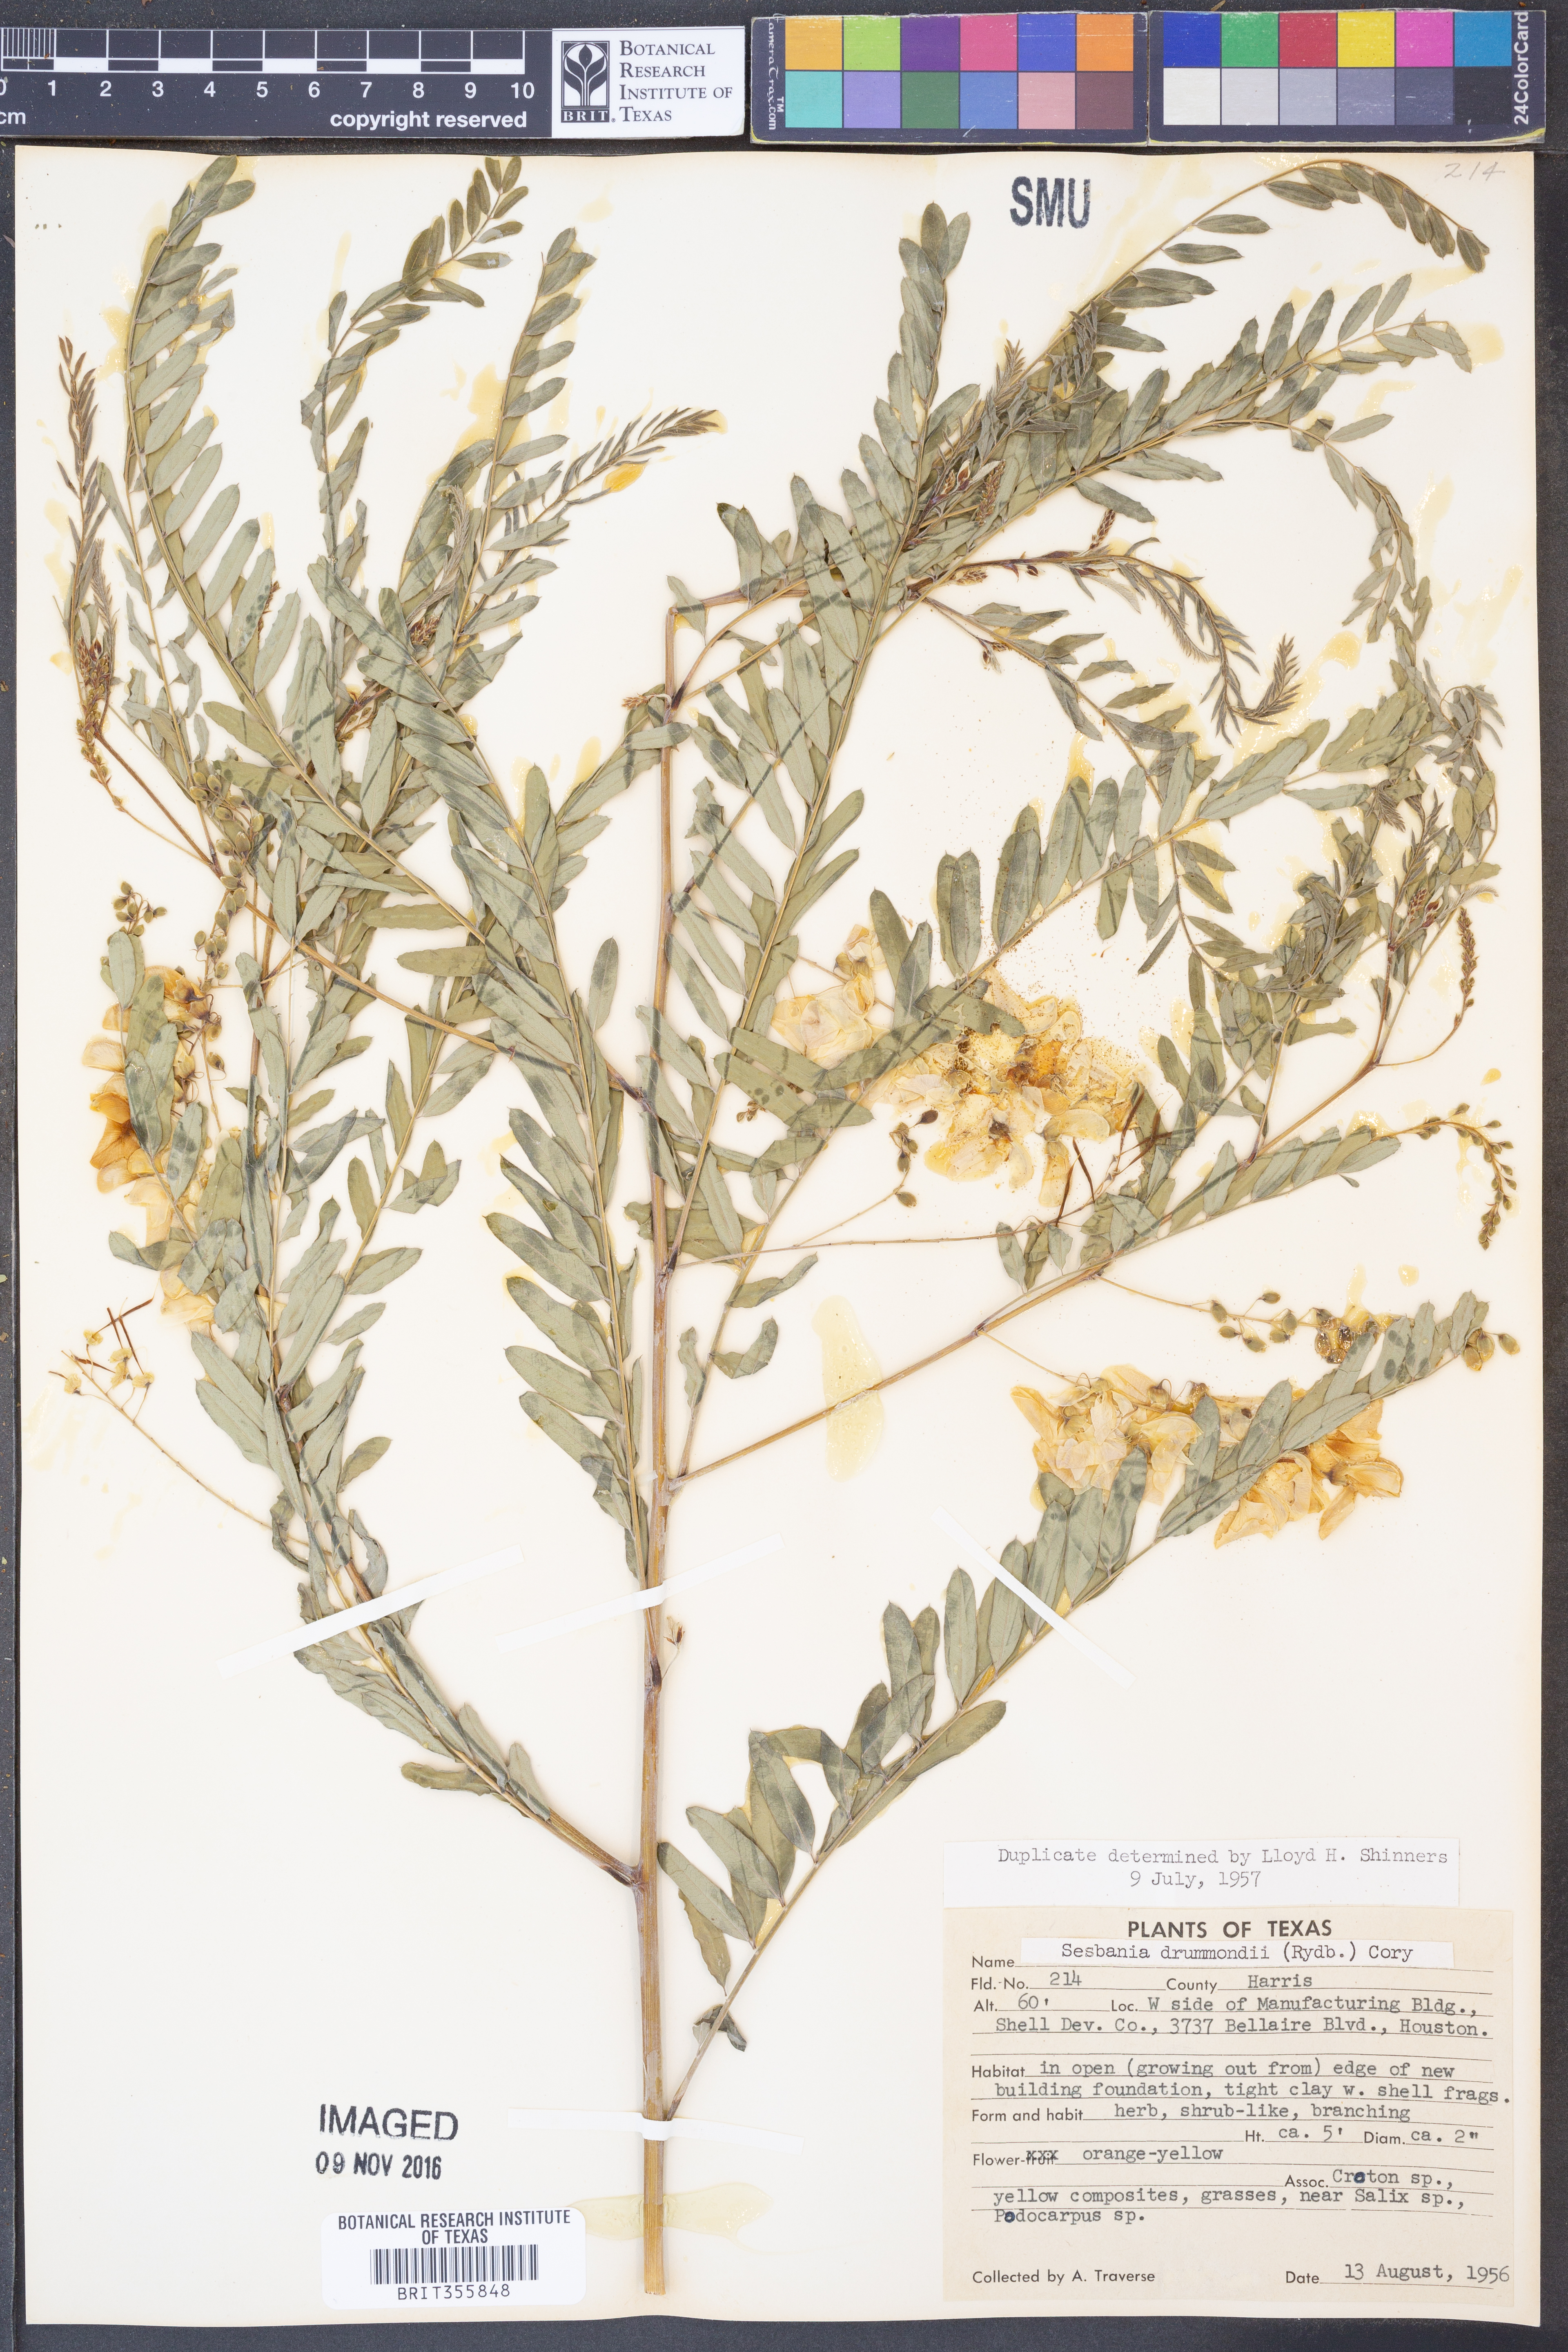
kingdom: Plantae
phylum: Tracheophyta
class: Magnoliopsida
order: Fabales
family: Fabaceae
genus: Sesbania
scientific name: Sesbania drummondii
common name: Poison-bean
